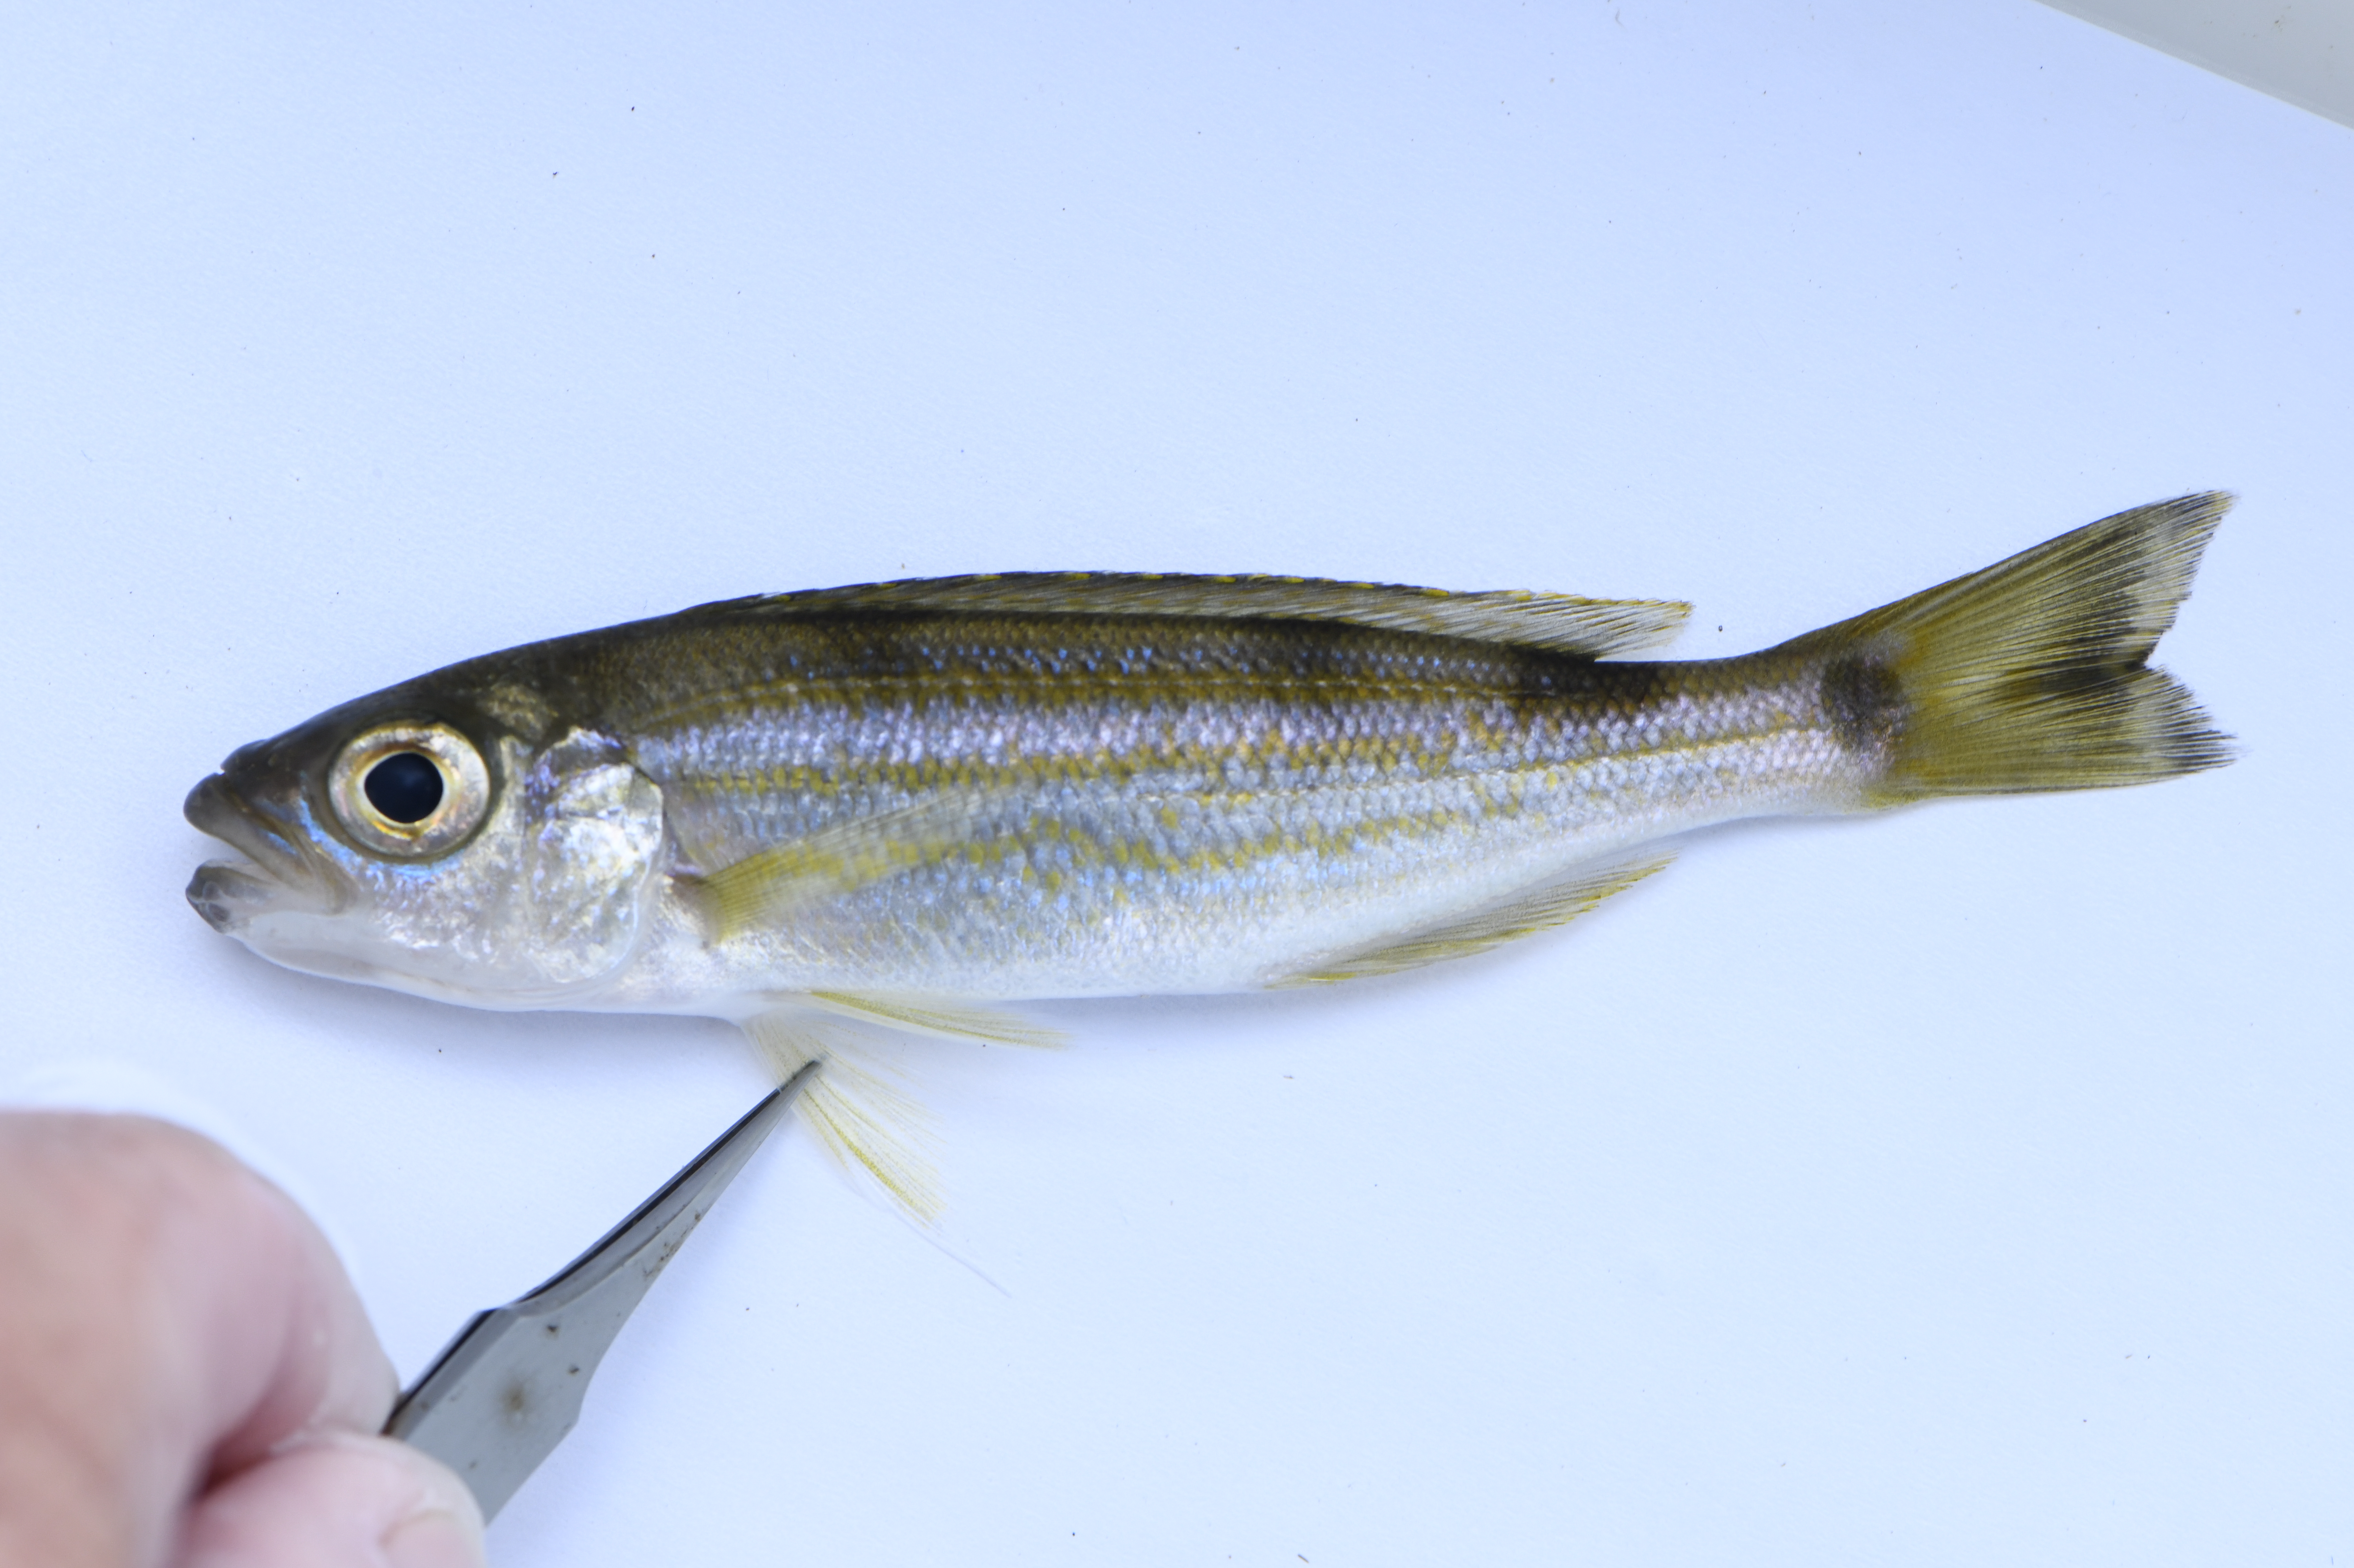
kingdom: Animalia
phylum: Chordata
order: Perciformes
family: Cichlidae
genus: Plecodus
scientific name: Plecodus elaviae
